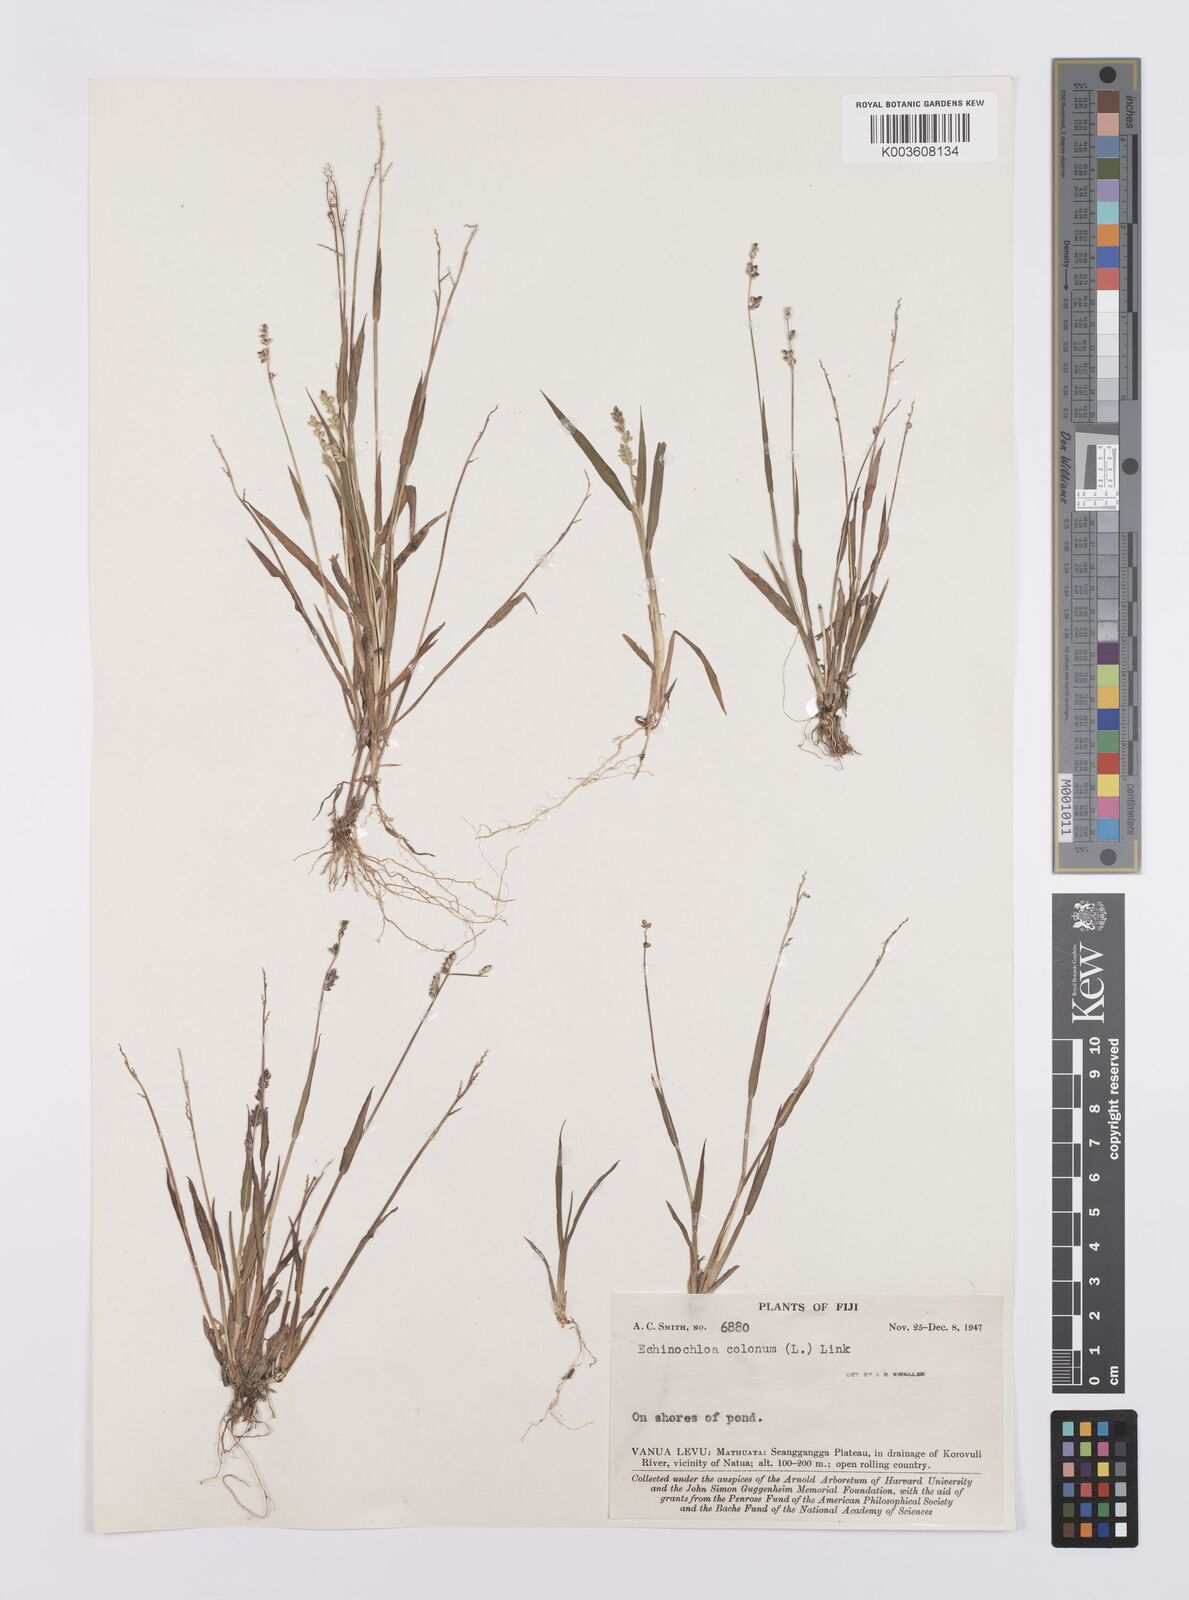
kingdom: Plantae
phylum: Tracheophyta
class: Liliopsida
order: Poales
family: Poaceae
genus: Echinochloa
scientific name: Echinochloa colonum
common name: Jungle rice
